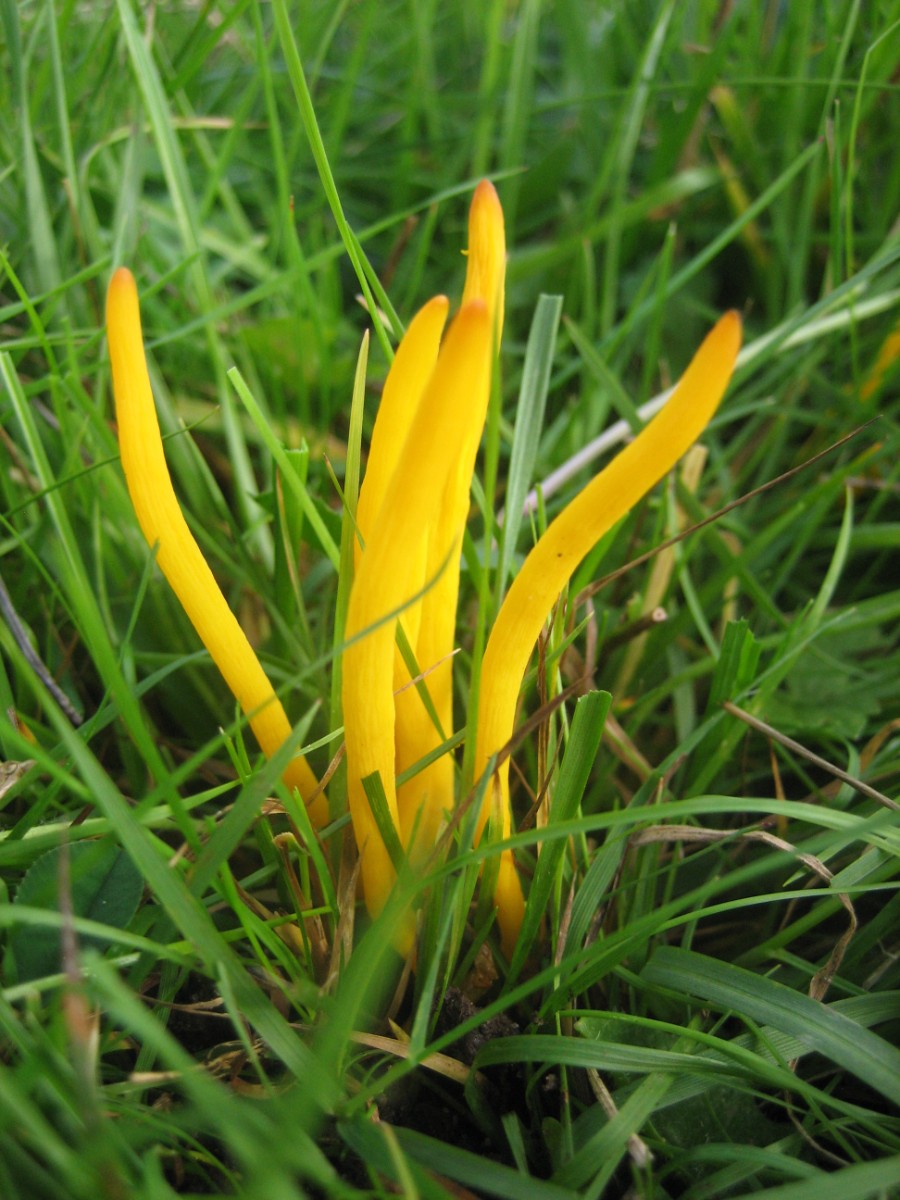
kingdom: Fungi
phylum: Basidiomycota
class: Agaricomycetes
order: Agaricales
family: Clavariaceae
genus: Clavulinopsis
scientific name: Clavulinopsis
